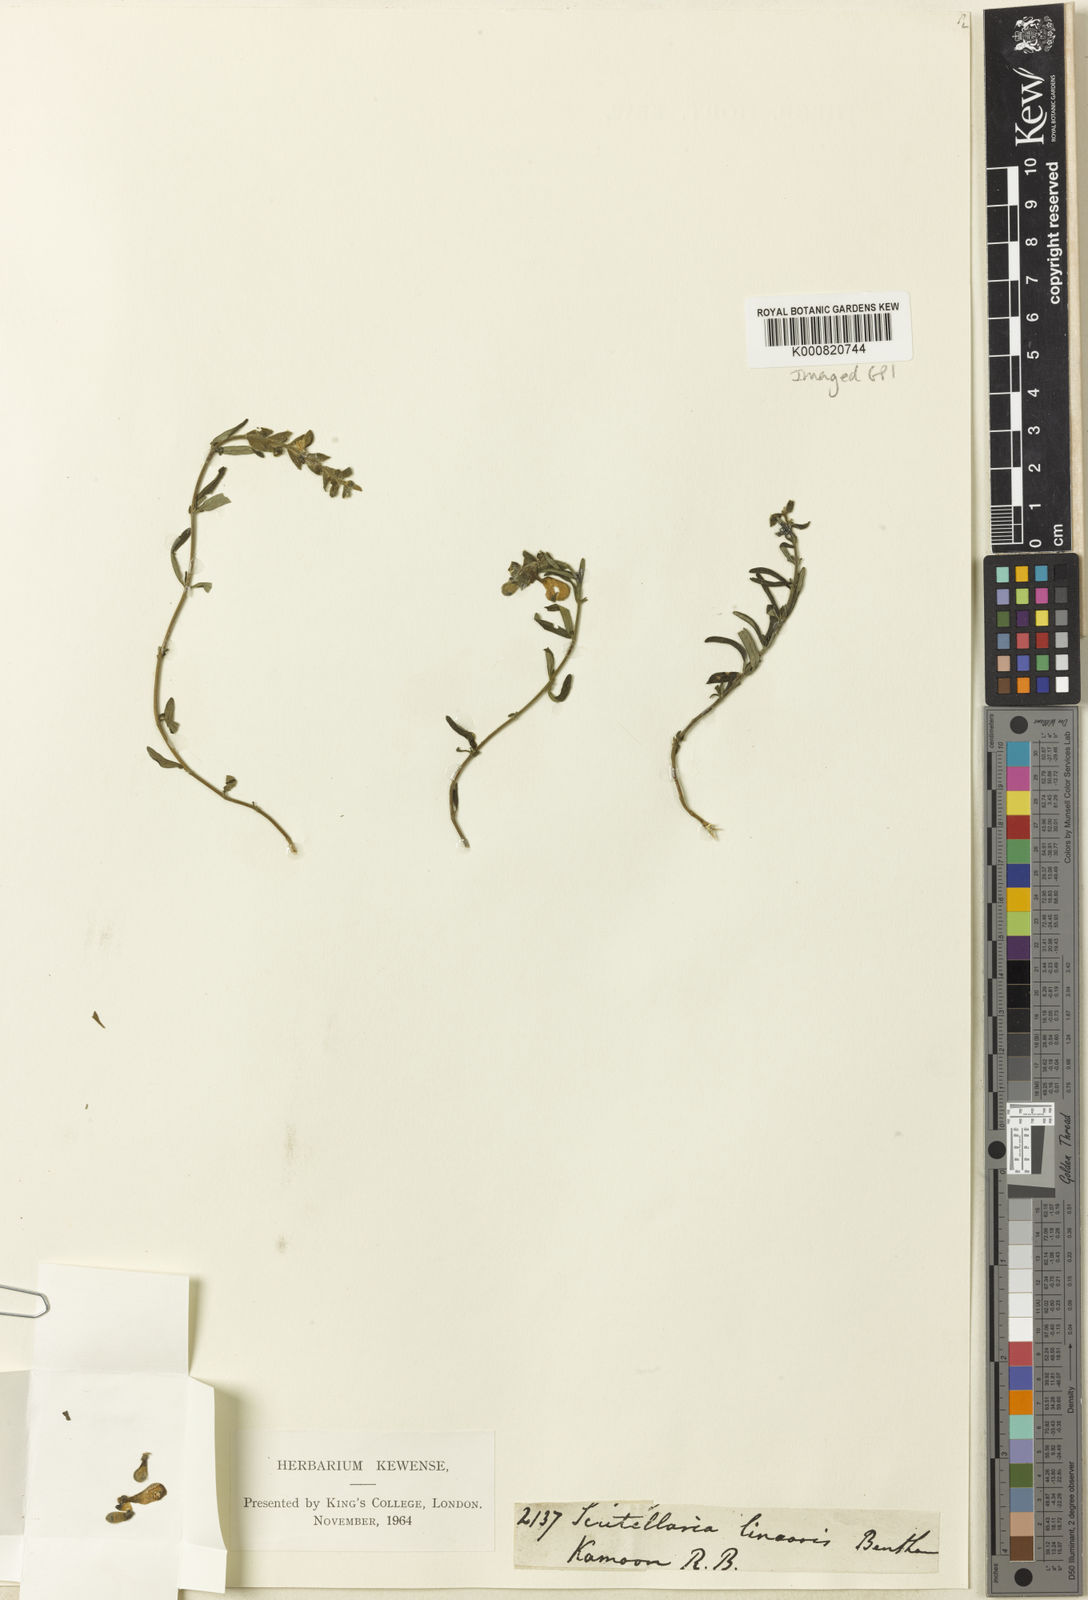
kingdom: Plantae
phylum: Tracheophyta
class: Magnoliopsida
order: Lamiales
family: Lamiaceae
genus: Scutellaria
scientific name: Scutellaria linearis
